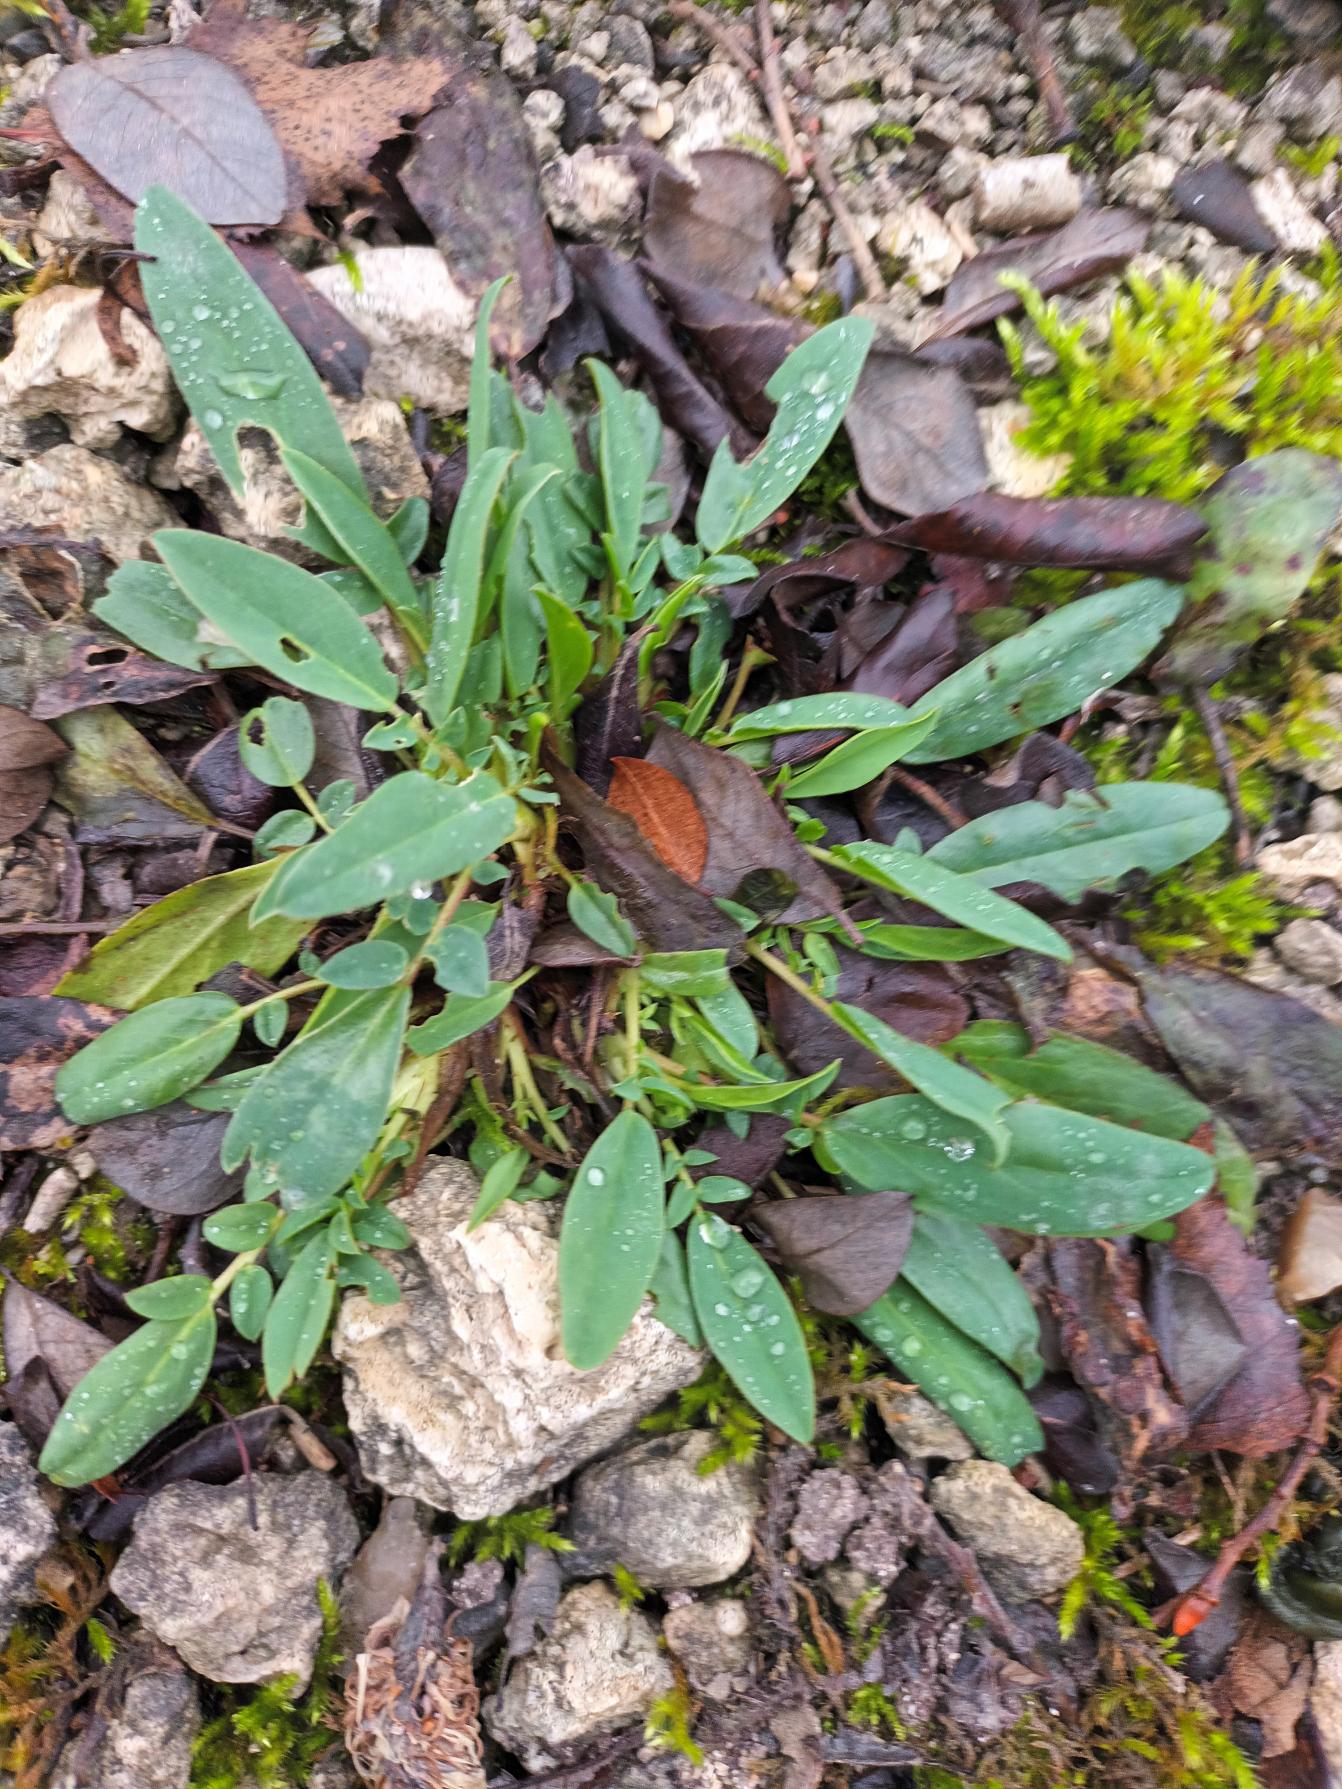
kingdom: Plantae
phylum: Tracheophyta
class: Magnoliopsida
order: Fabales
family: Fabaceae
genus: Anthyllis
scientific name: Anthyllis vulneraria
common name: Rundbælg
